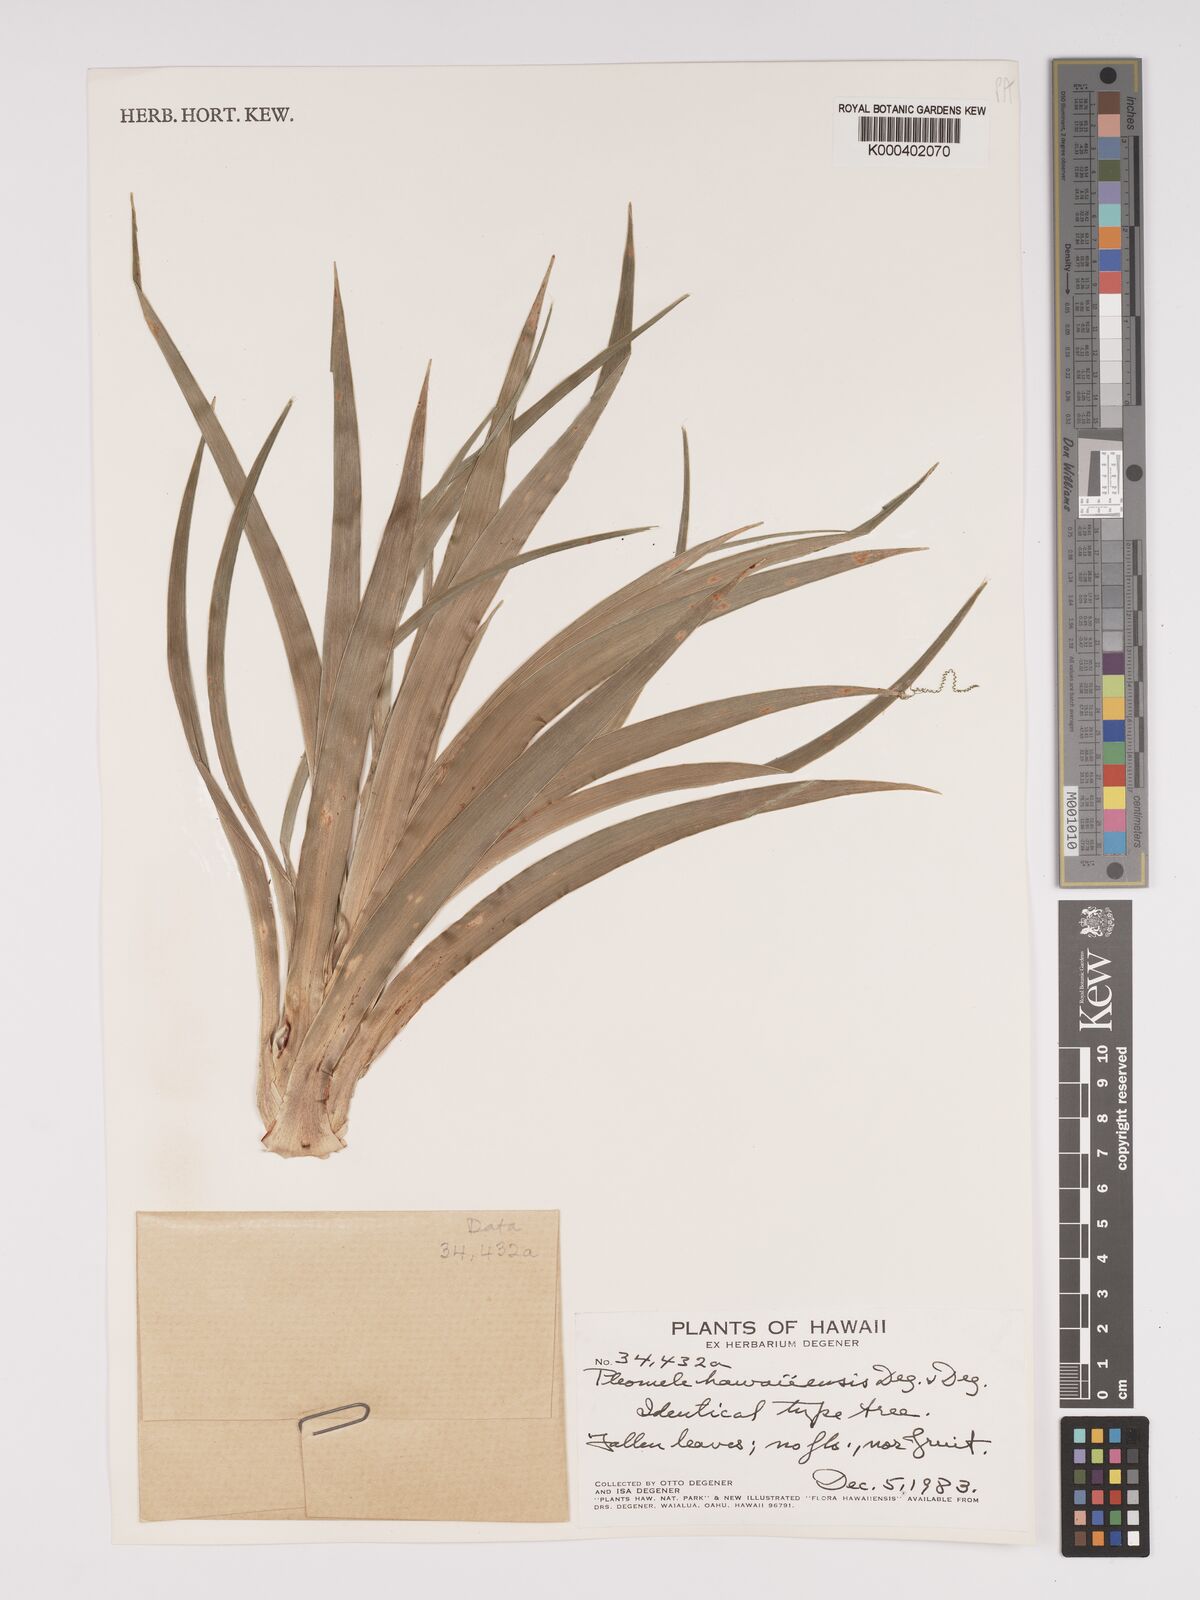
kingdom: Plantae
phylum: Tracheophyta
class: Liliopsida
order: Asparagales
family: Asparagaceae
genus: Dracaena
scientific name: Dracaena fernaldii
